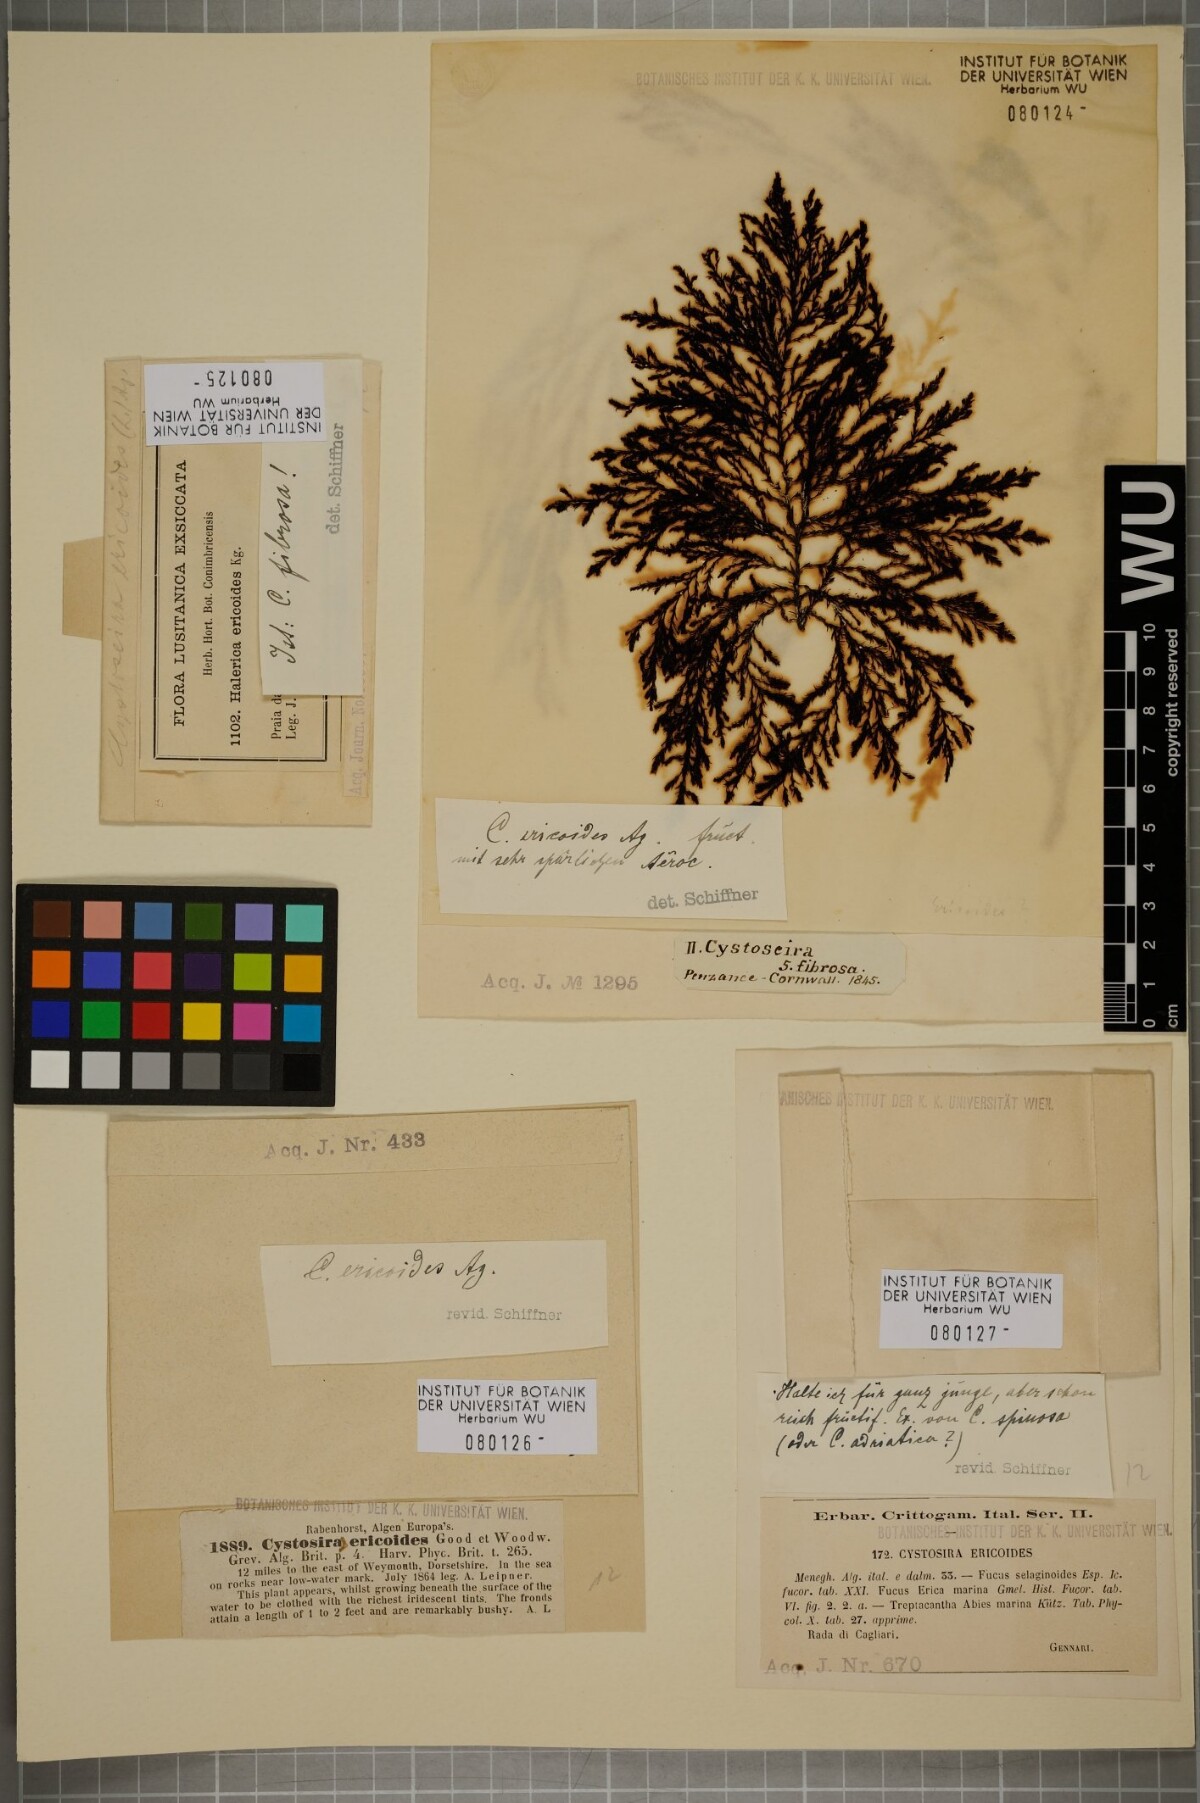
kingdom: Chromista
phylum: Ochrophyta
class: Phaeophyceae
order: Fucales
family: Sargassaceae
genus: Cystoseira
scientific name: Cystoseira Ericaria selaginoides
